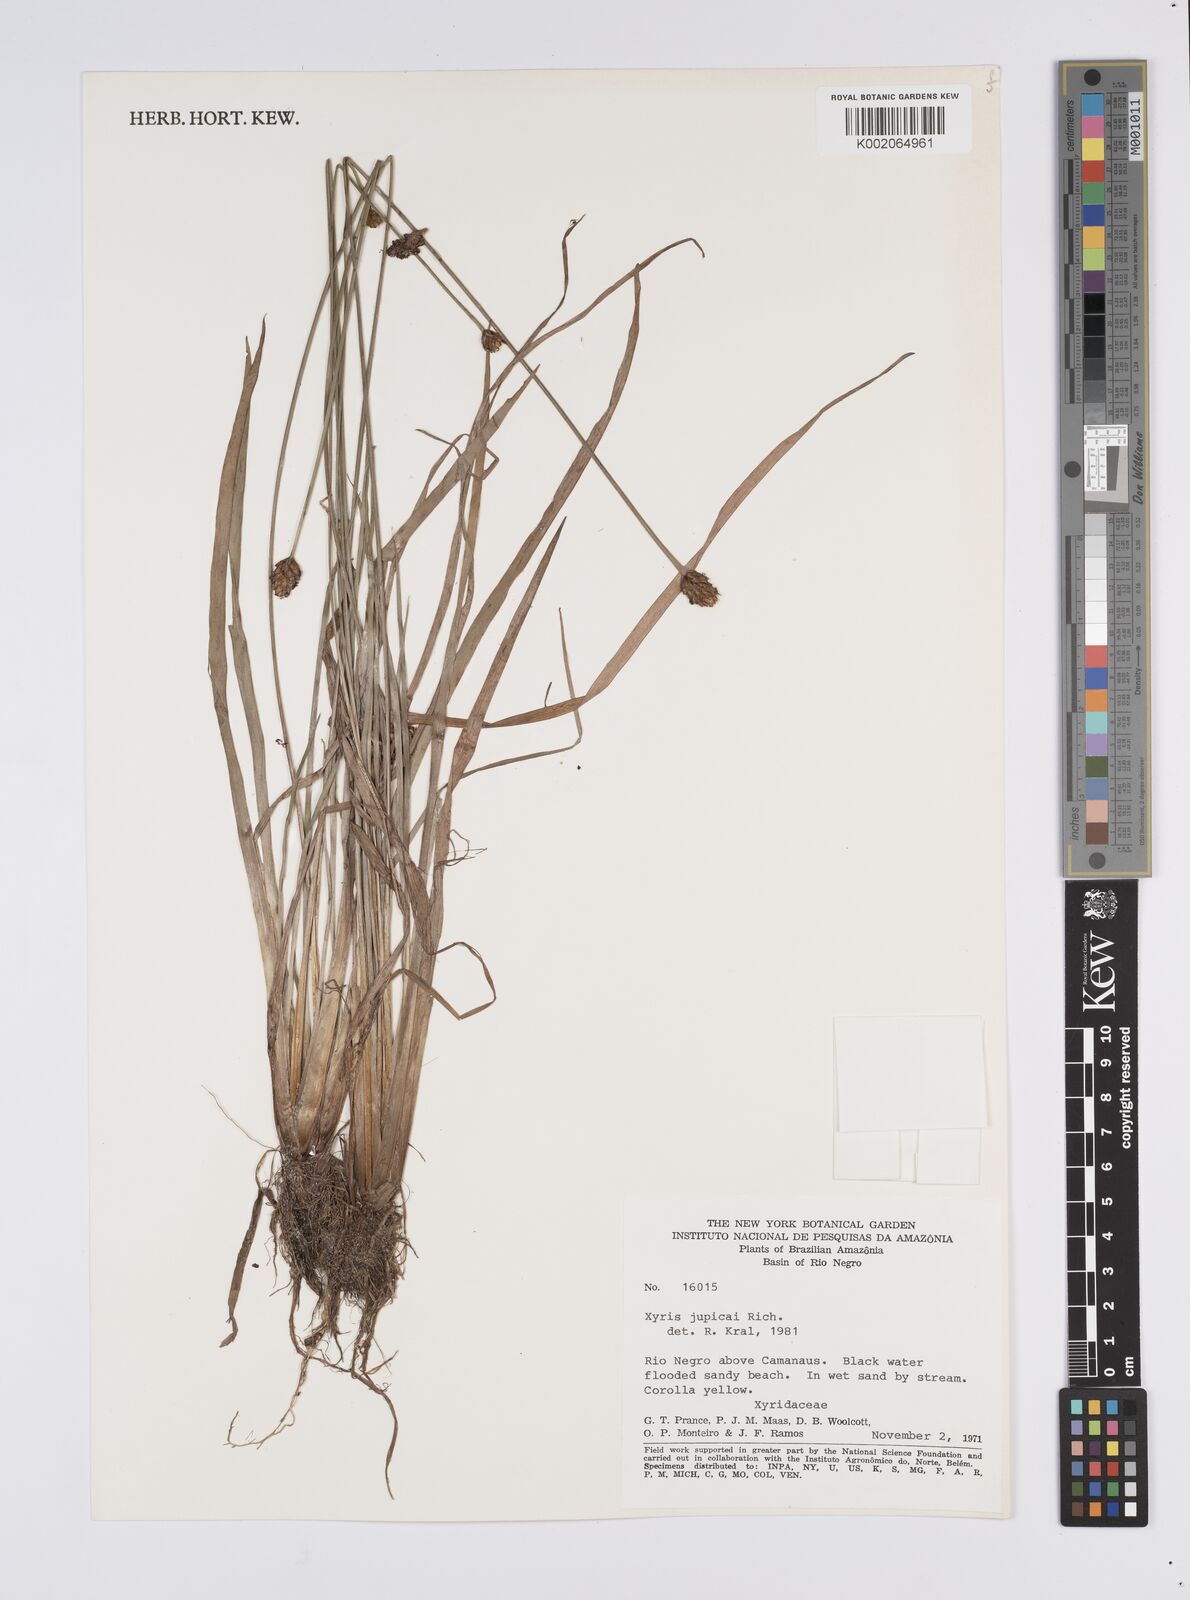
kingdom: Plantae
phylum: Tracheophyta
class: Liliopsida
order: Poales
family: Xyridaceae
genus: Xyris
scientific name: Xyris jupicai
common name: Richard's yelloweyed grass
